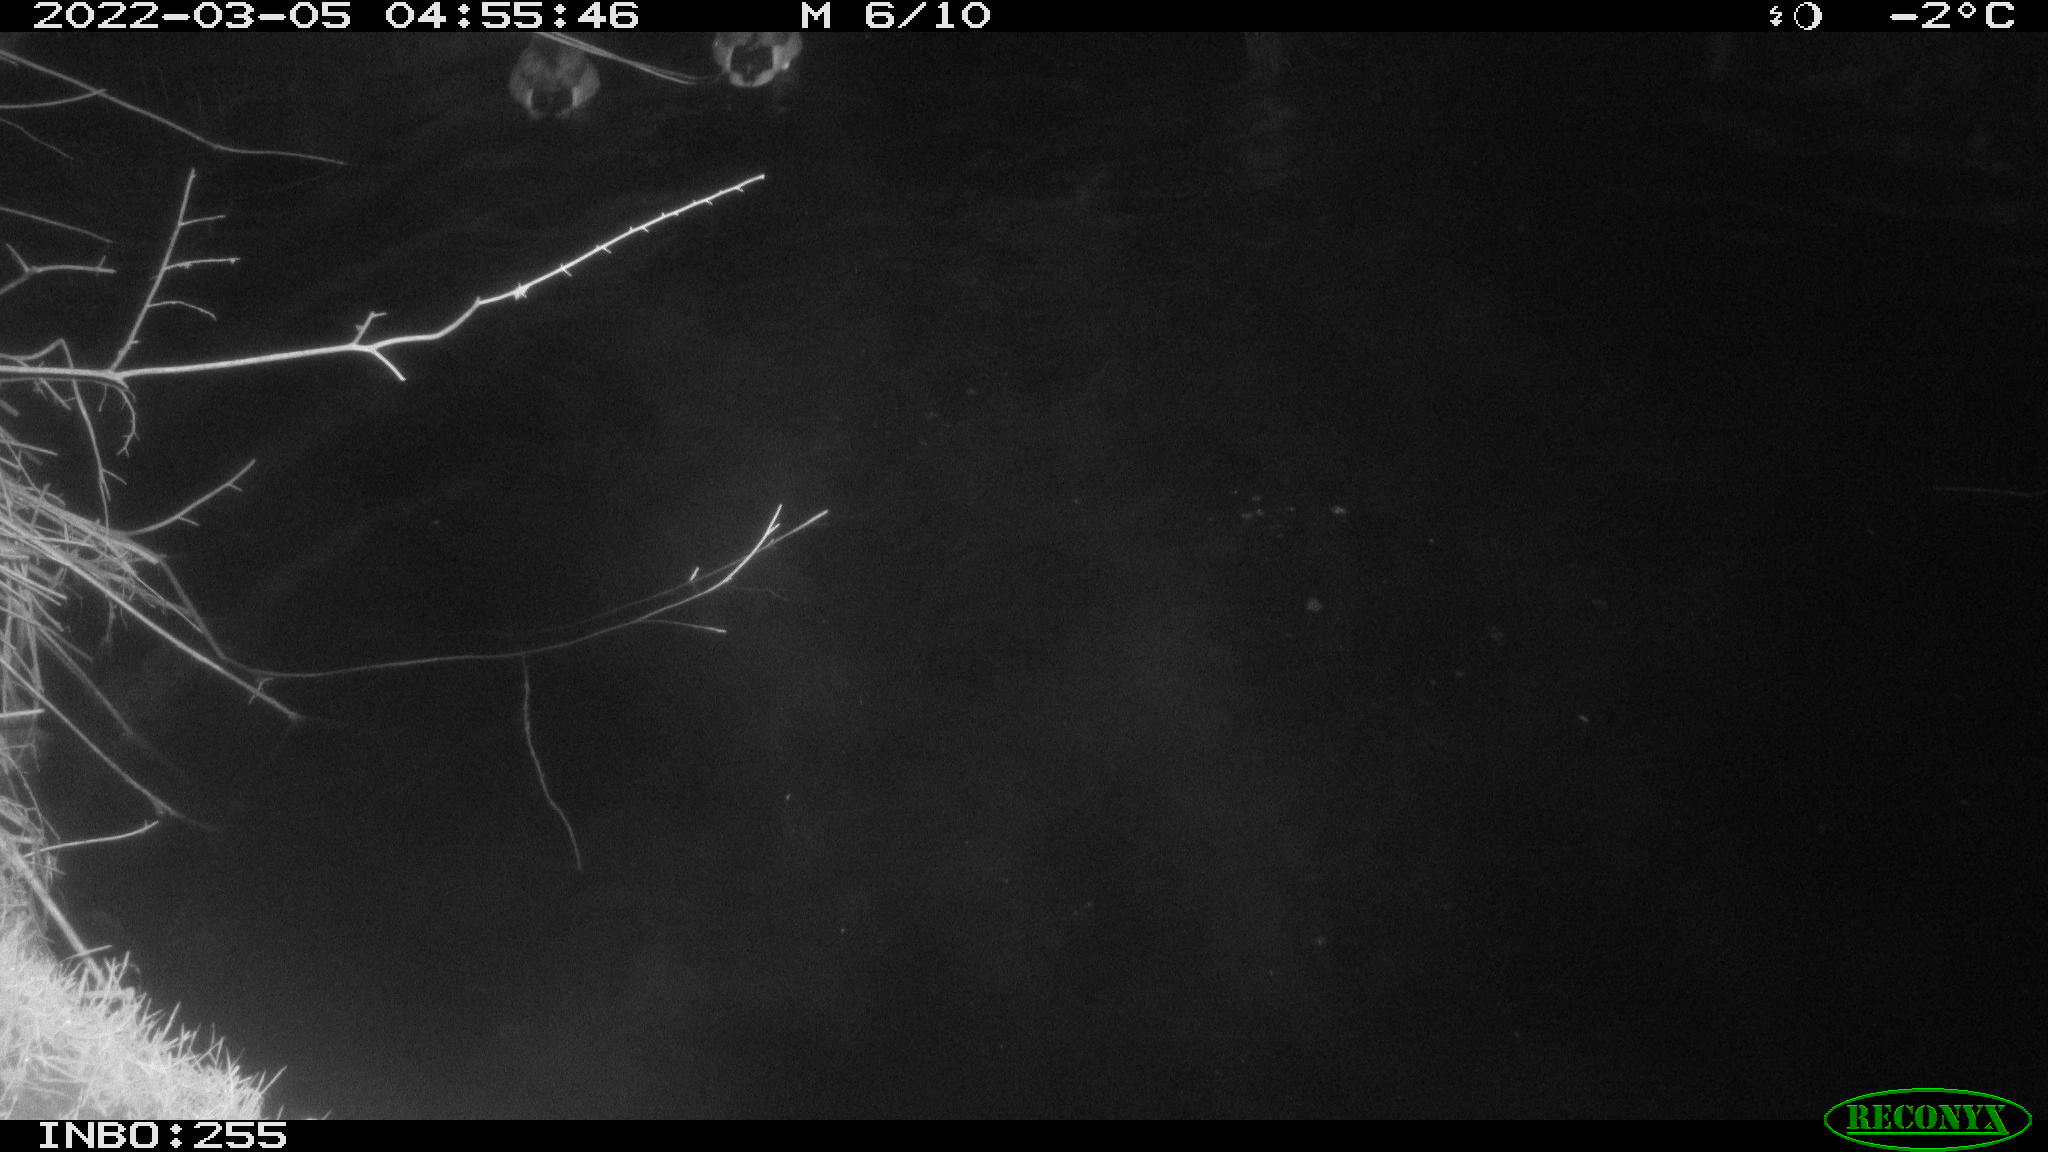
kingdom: Animalia
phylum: Chordata
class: Aves
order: Anseriformes
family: Anatidae
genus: Anas
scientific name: Anas platyrhynchos
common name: Mallard
